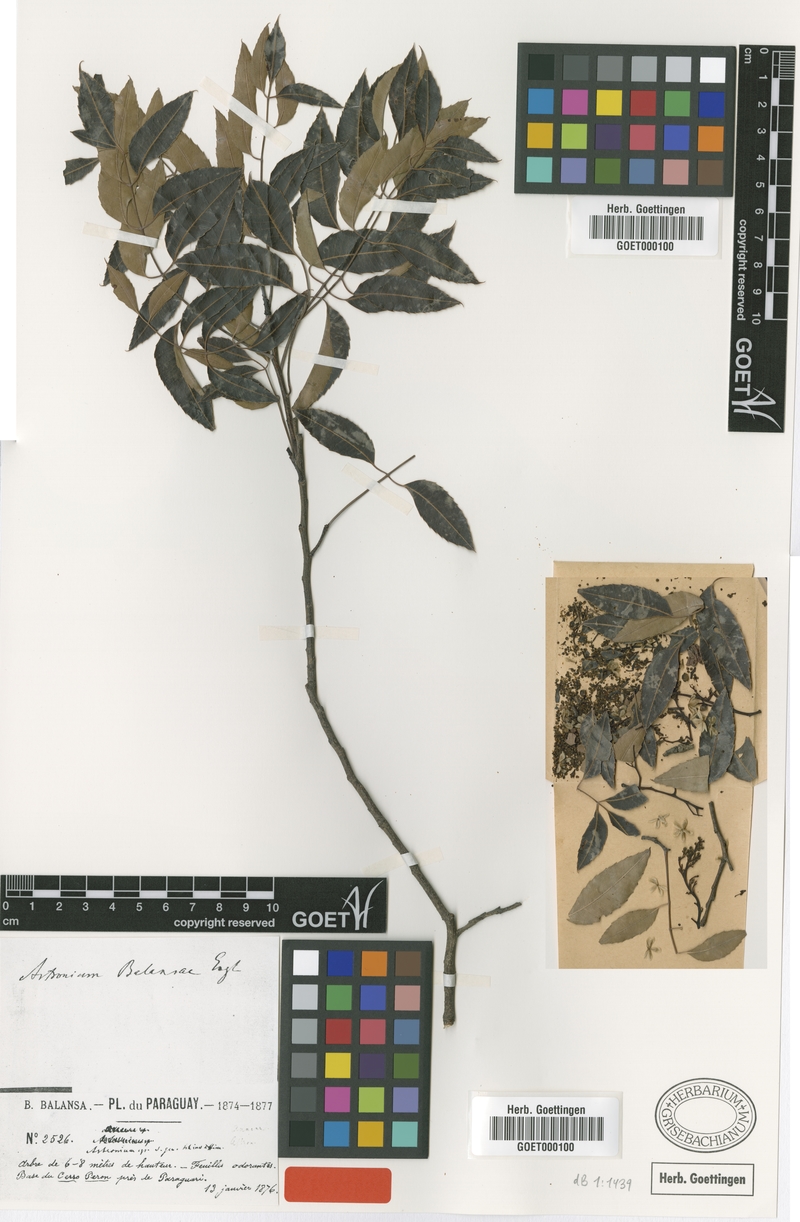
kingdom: Plantae
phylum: Tracheophyta
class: Magnoliopsida
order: Sapindales
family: Anacardiaceae
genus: Myracrodruon
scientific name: Myracrodruon balansae
